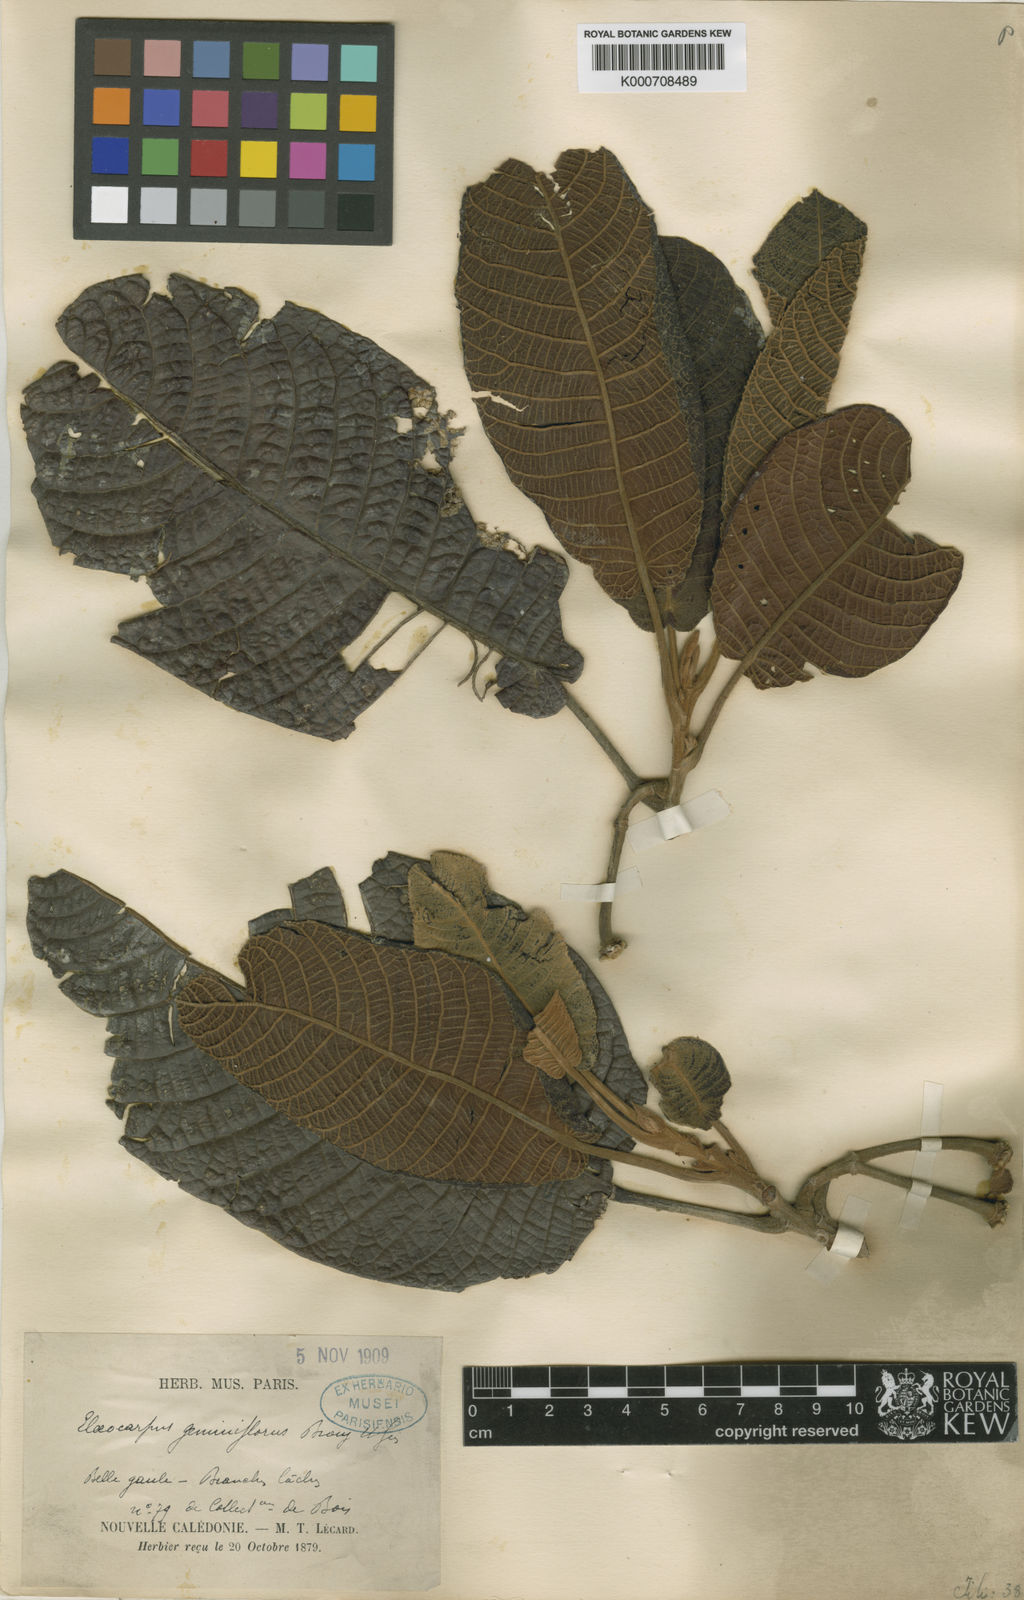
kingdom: Plantae
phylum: Tracheophyta
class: Magnoliopsida
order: Oxalidales
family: Elaeocarpaceae
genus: Elaeocarpus
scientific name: Elaeocarpus geminiflorus
